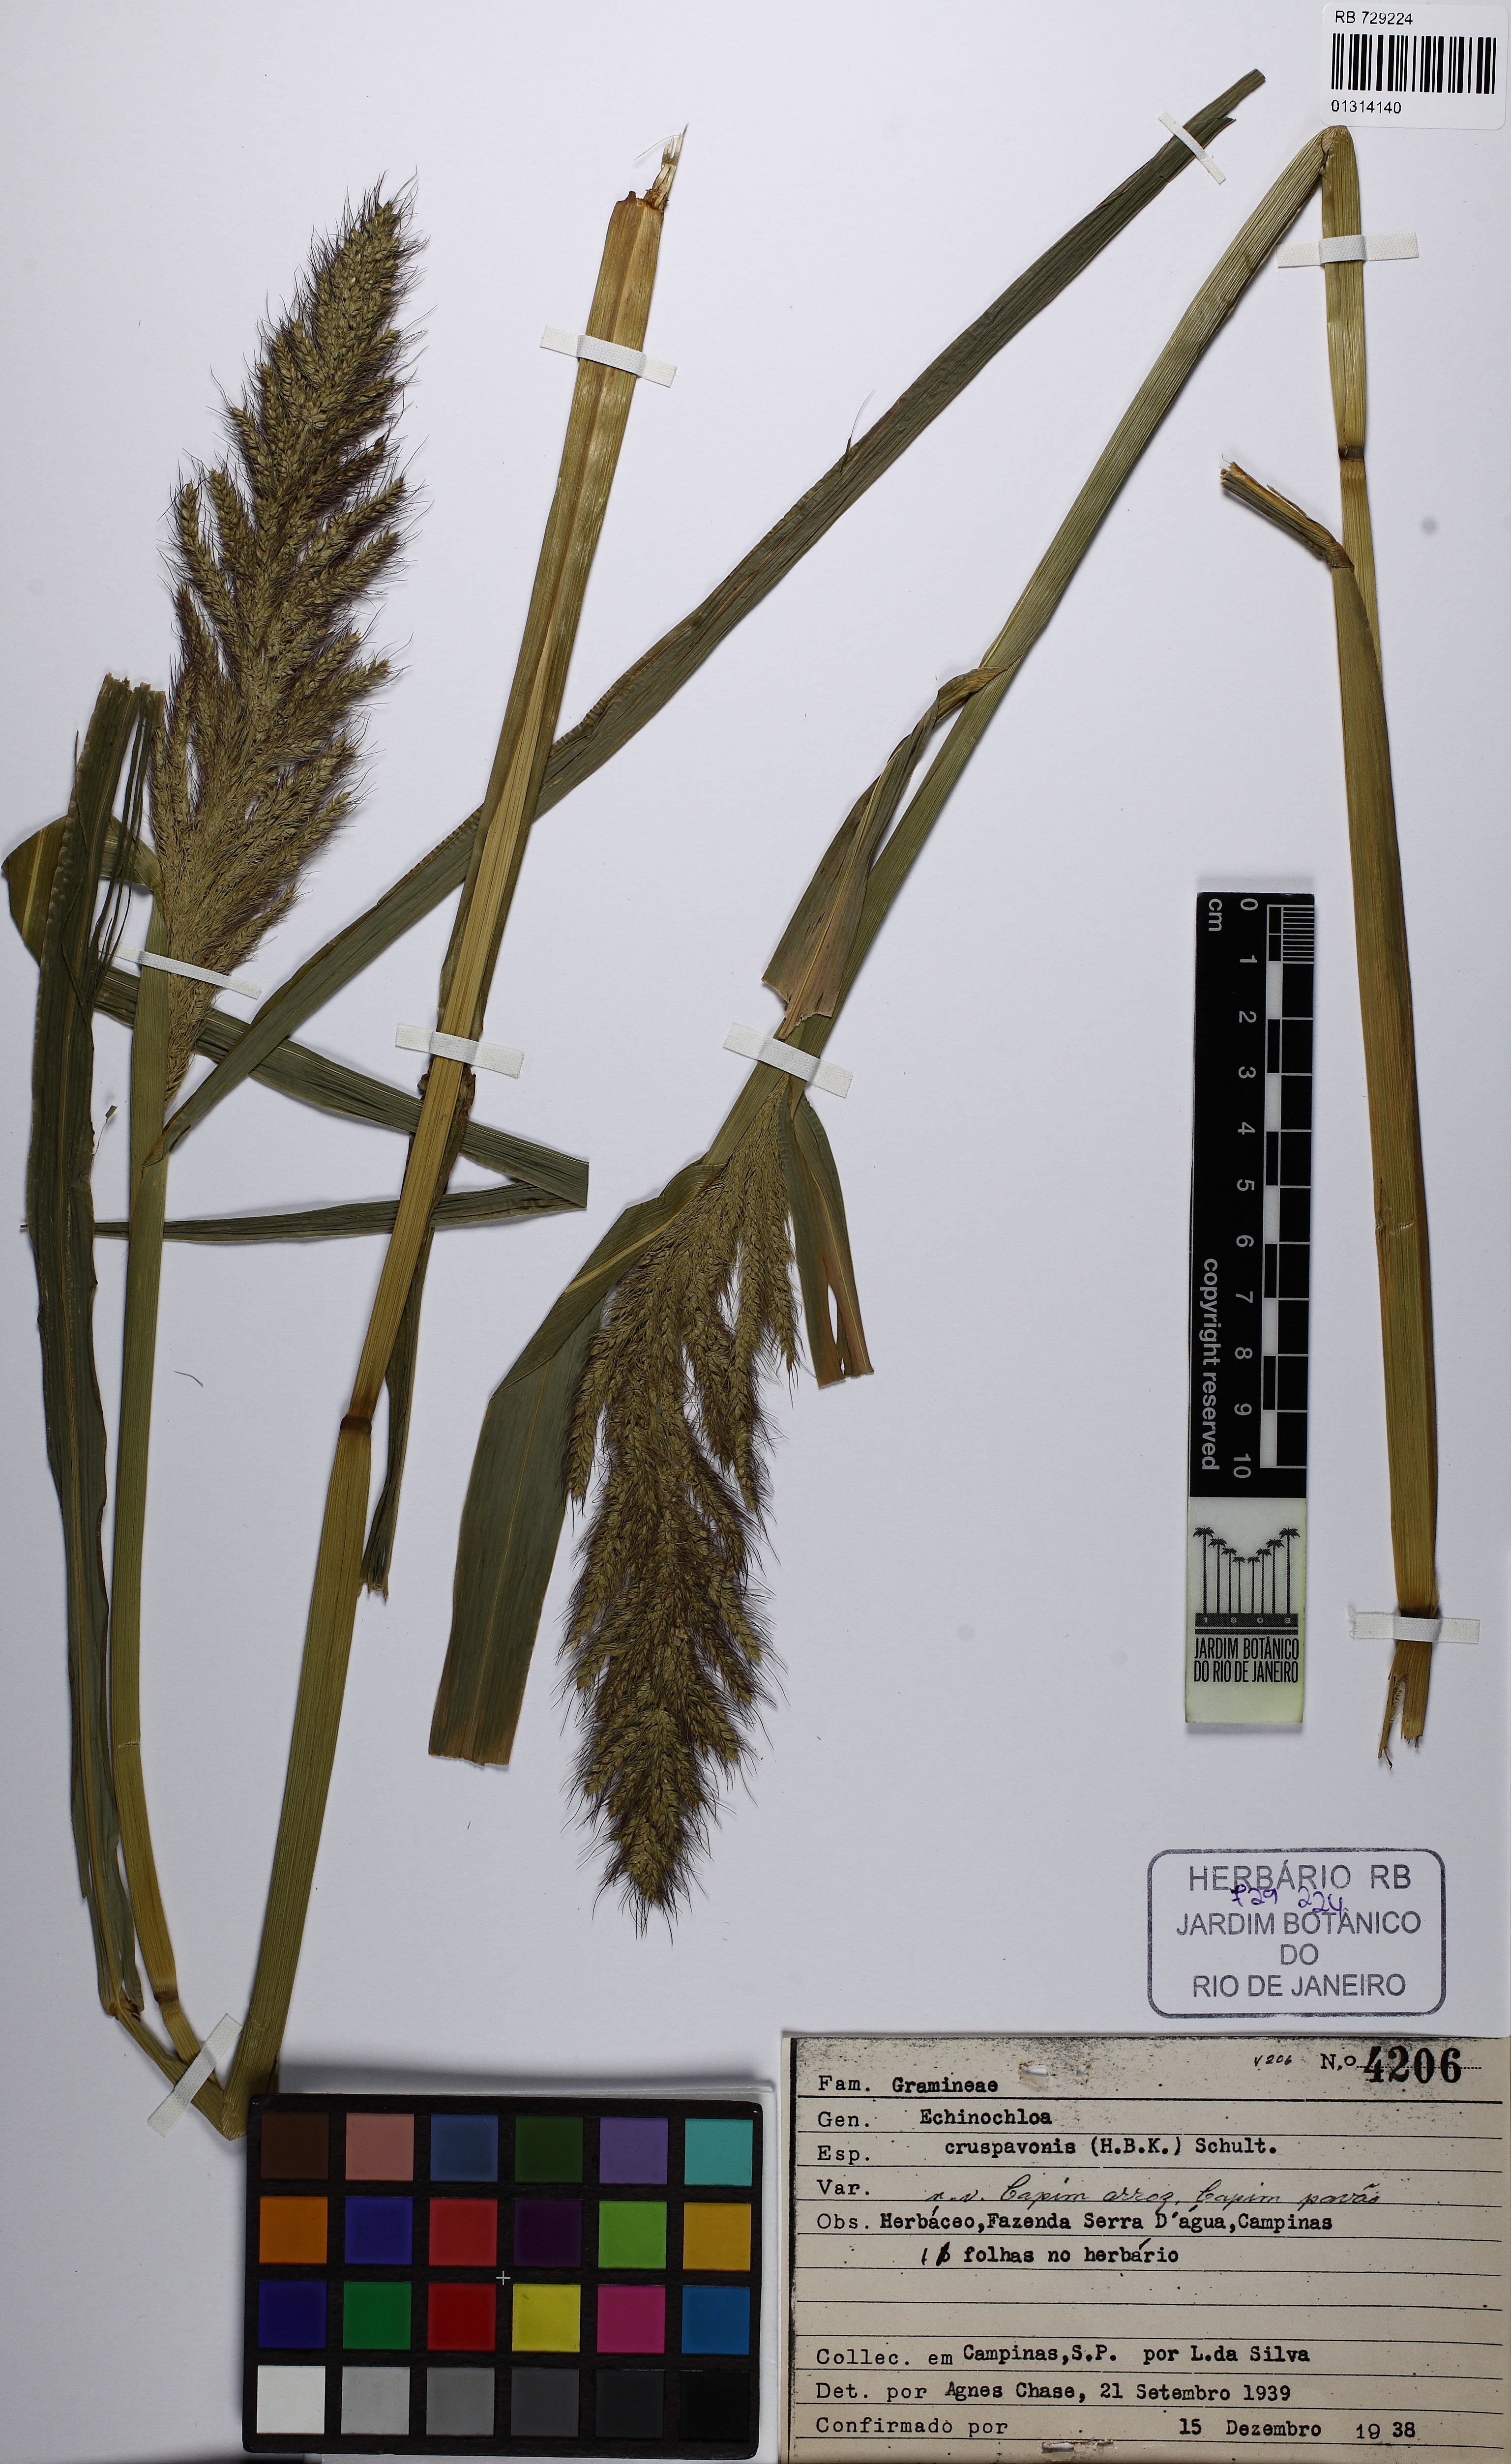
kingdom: Plantae
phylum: Tracheophyta
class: Liliopsida
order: Poales
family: Poaceae
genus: Echinochloa
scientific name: Echinochloa crus-pavonis
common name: Gulf cockspur grass
